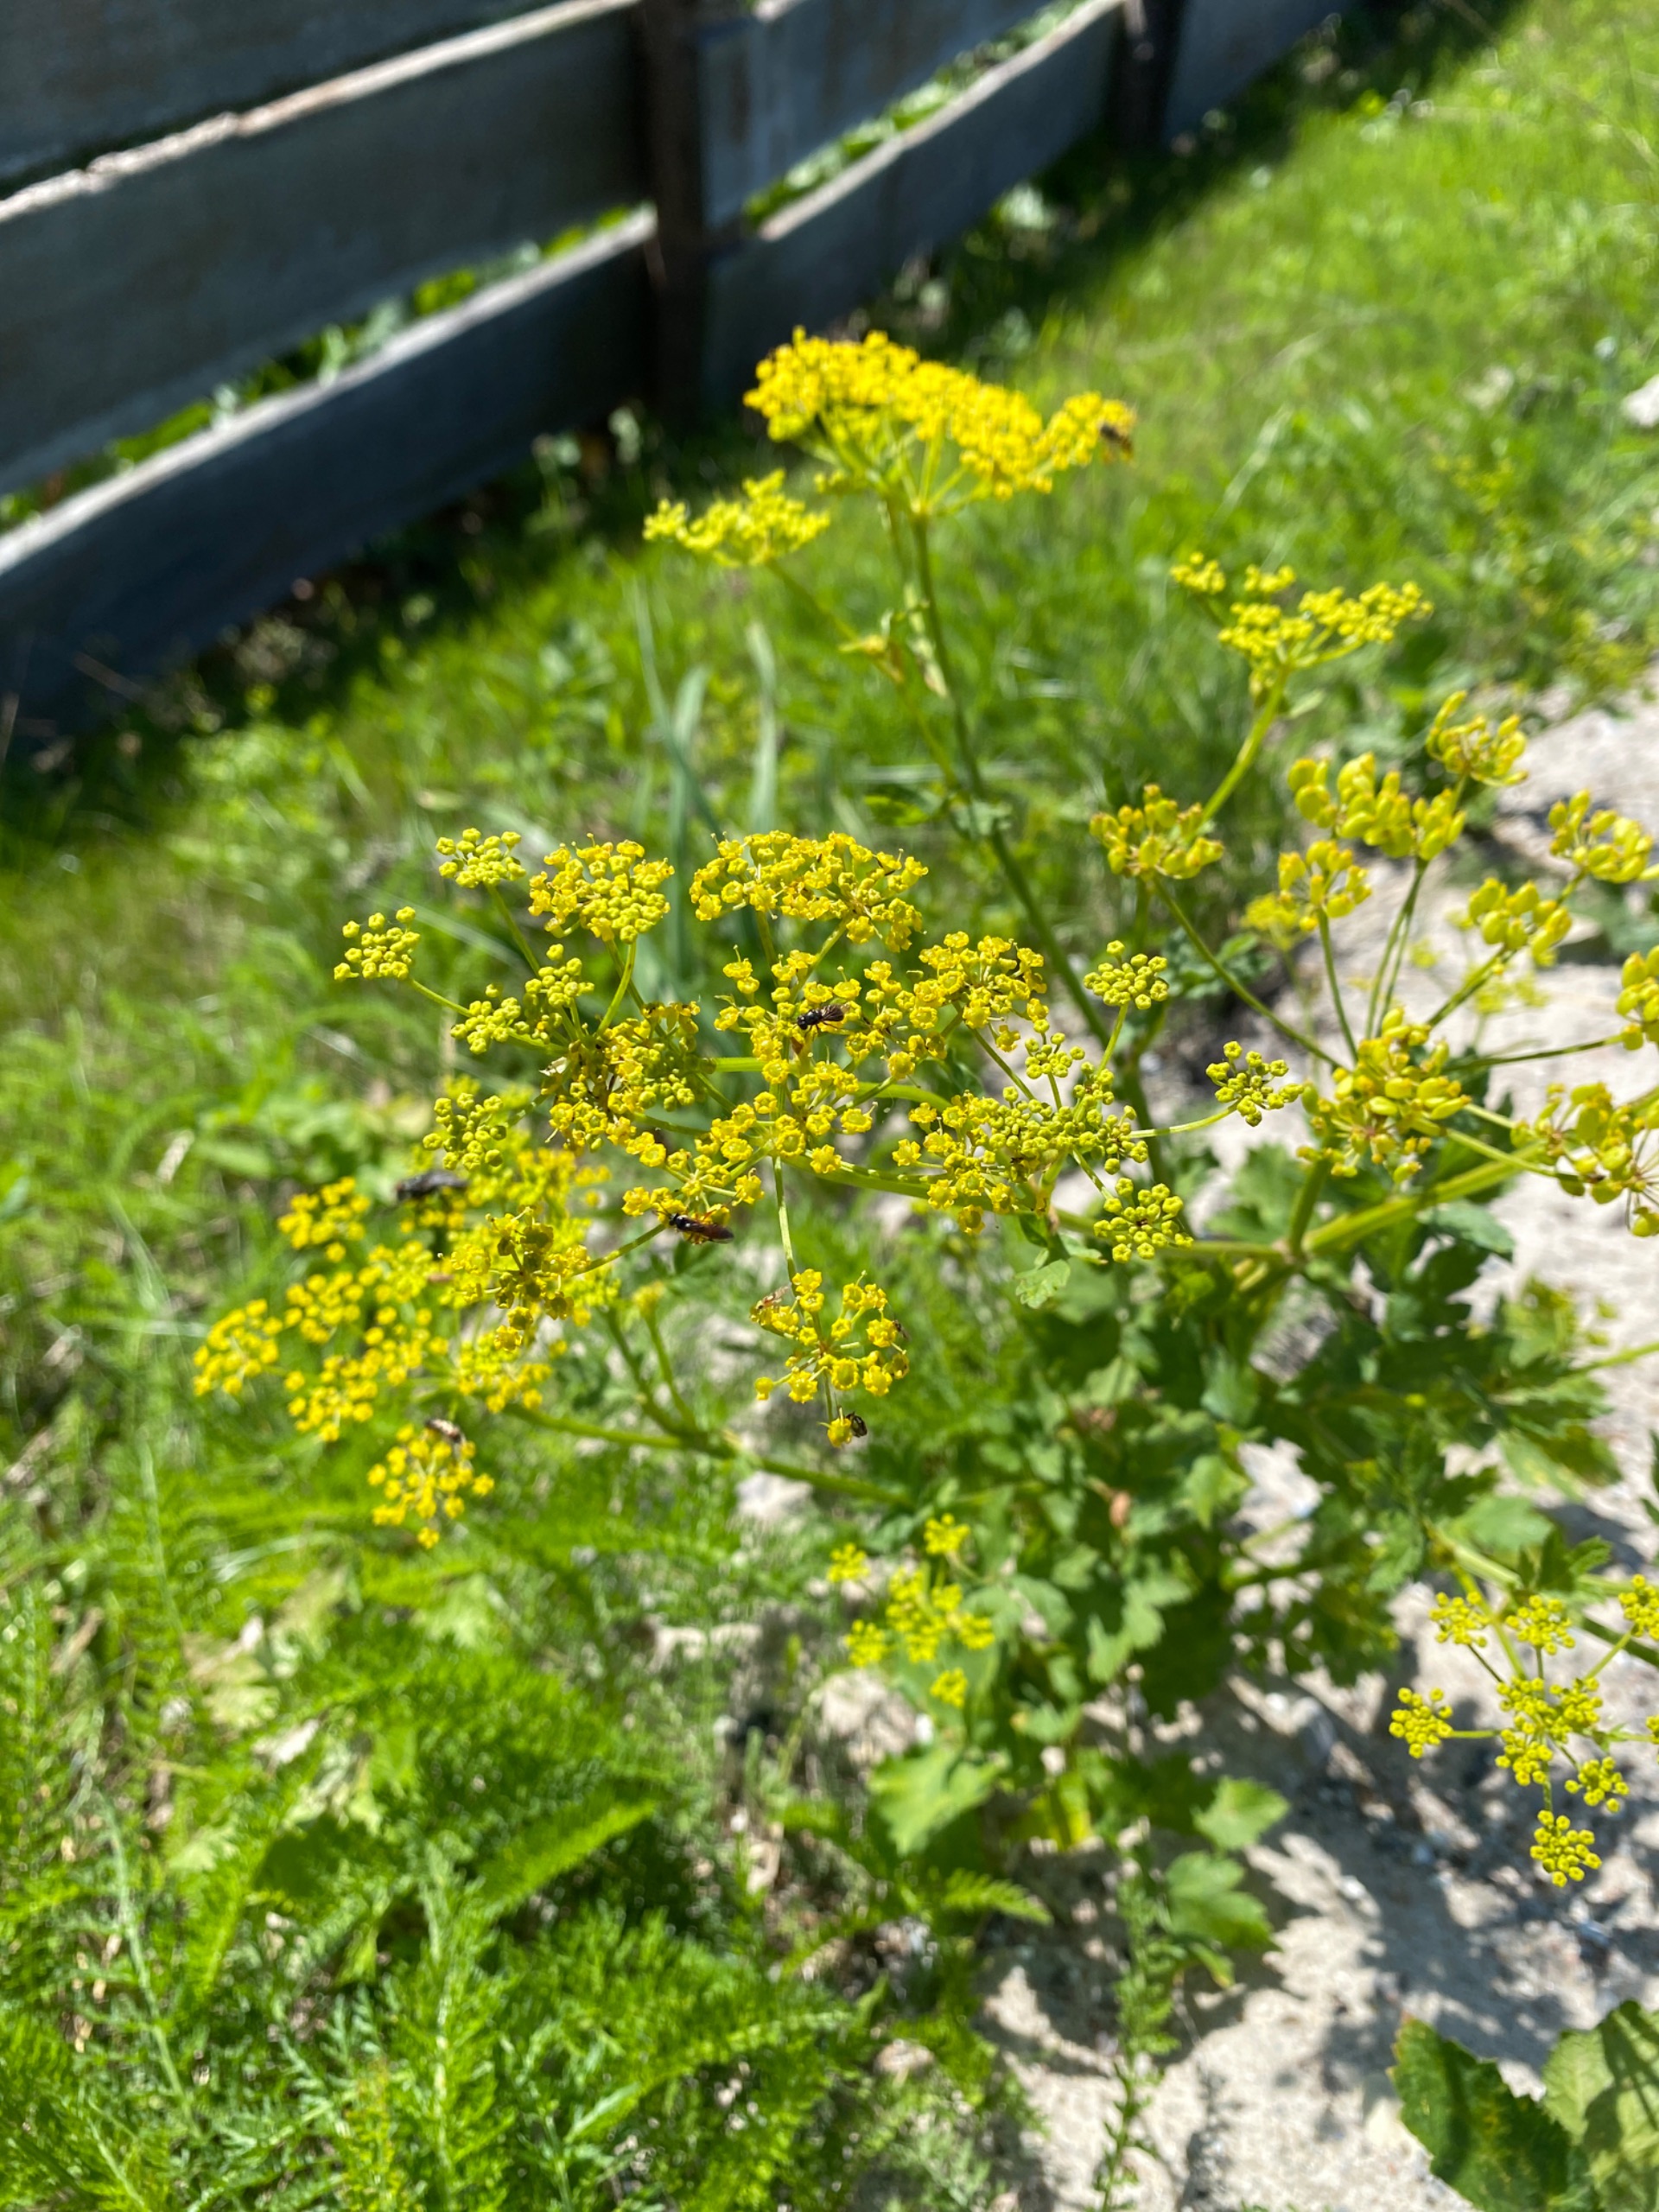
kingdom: Plantae
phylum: Tracheophyta
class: Magnoliopsida
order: Apiales
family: Apiaceae
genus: Pastinaca
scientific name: Pastinaca sativa
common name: Pastinak
